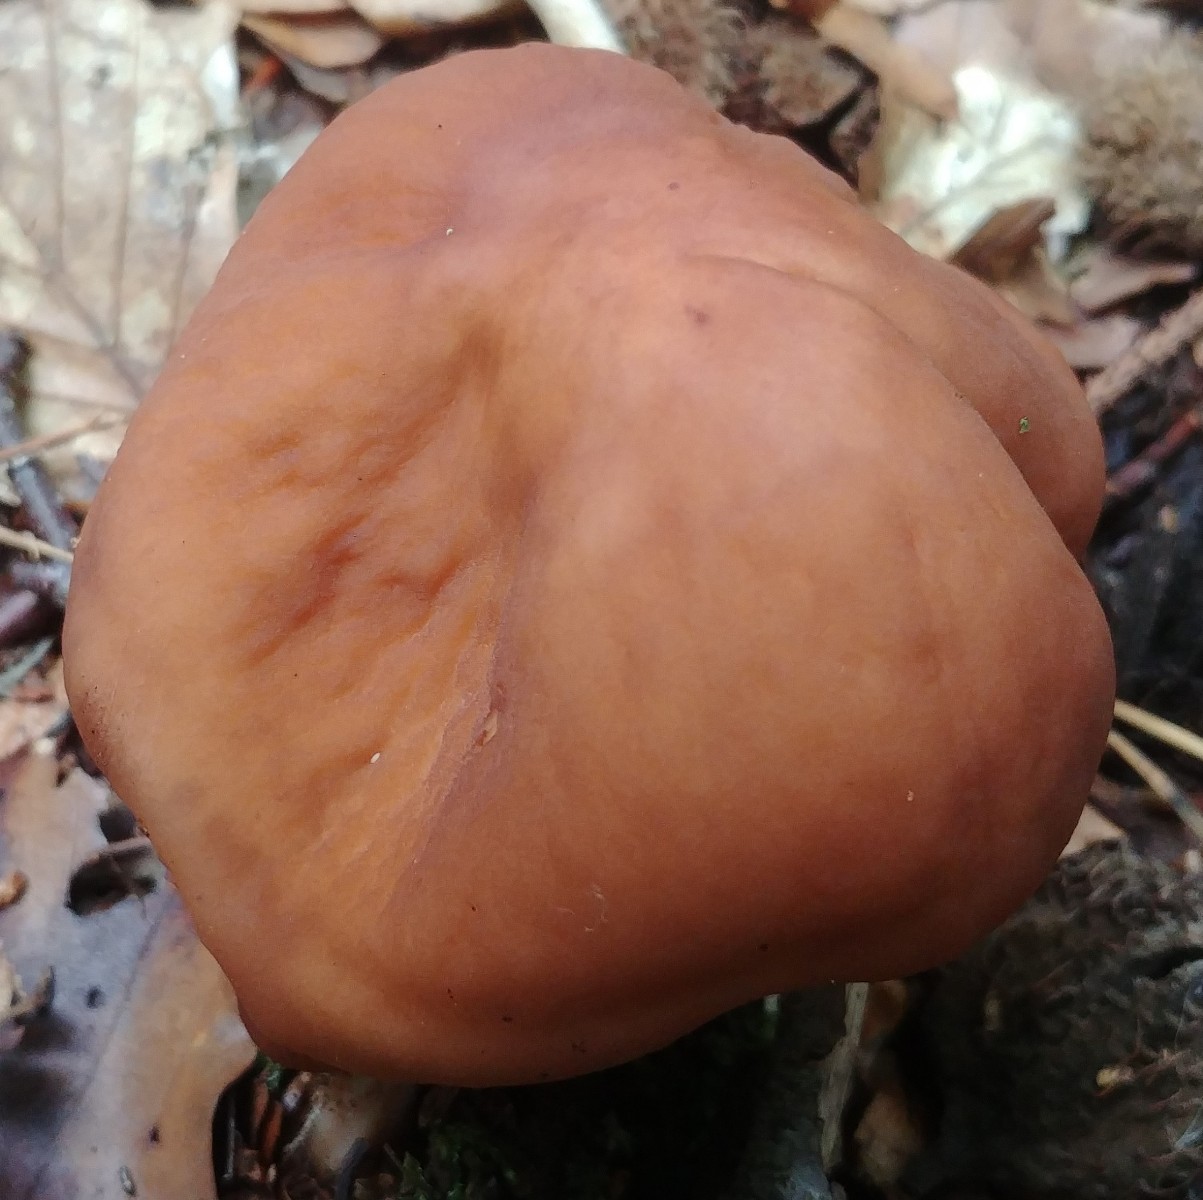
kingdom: Fungi
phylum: Basidiomycota
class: Agaricomycetes
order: Agaricales
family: Omphalotaceae
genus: Gymnopus
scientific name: Gymnopus fusipes
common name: tenstokket fladhat
